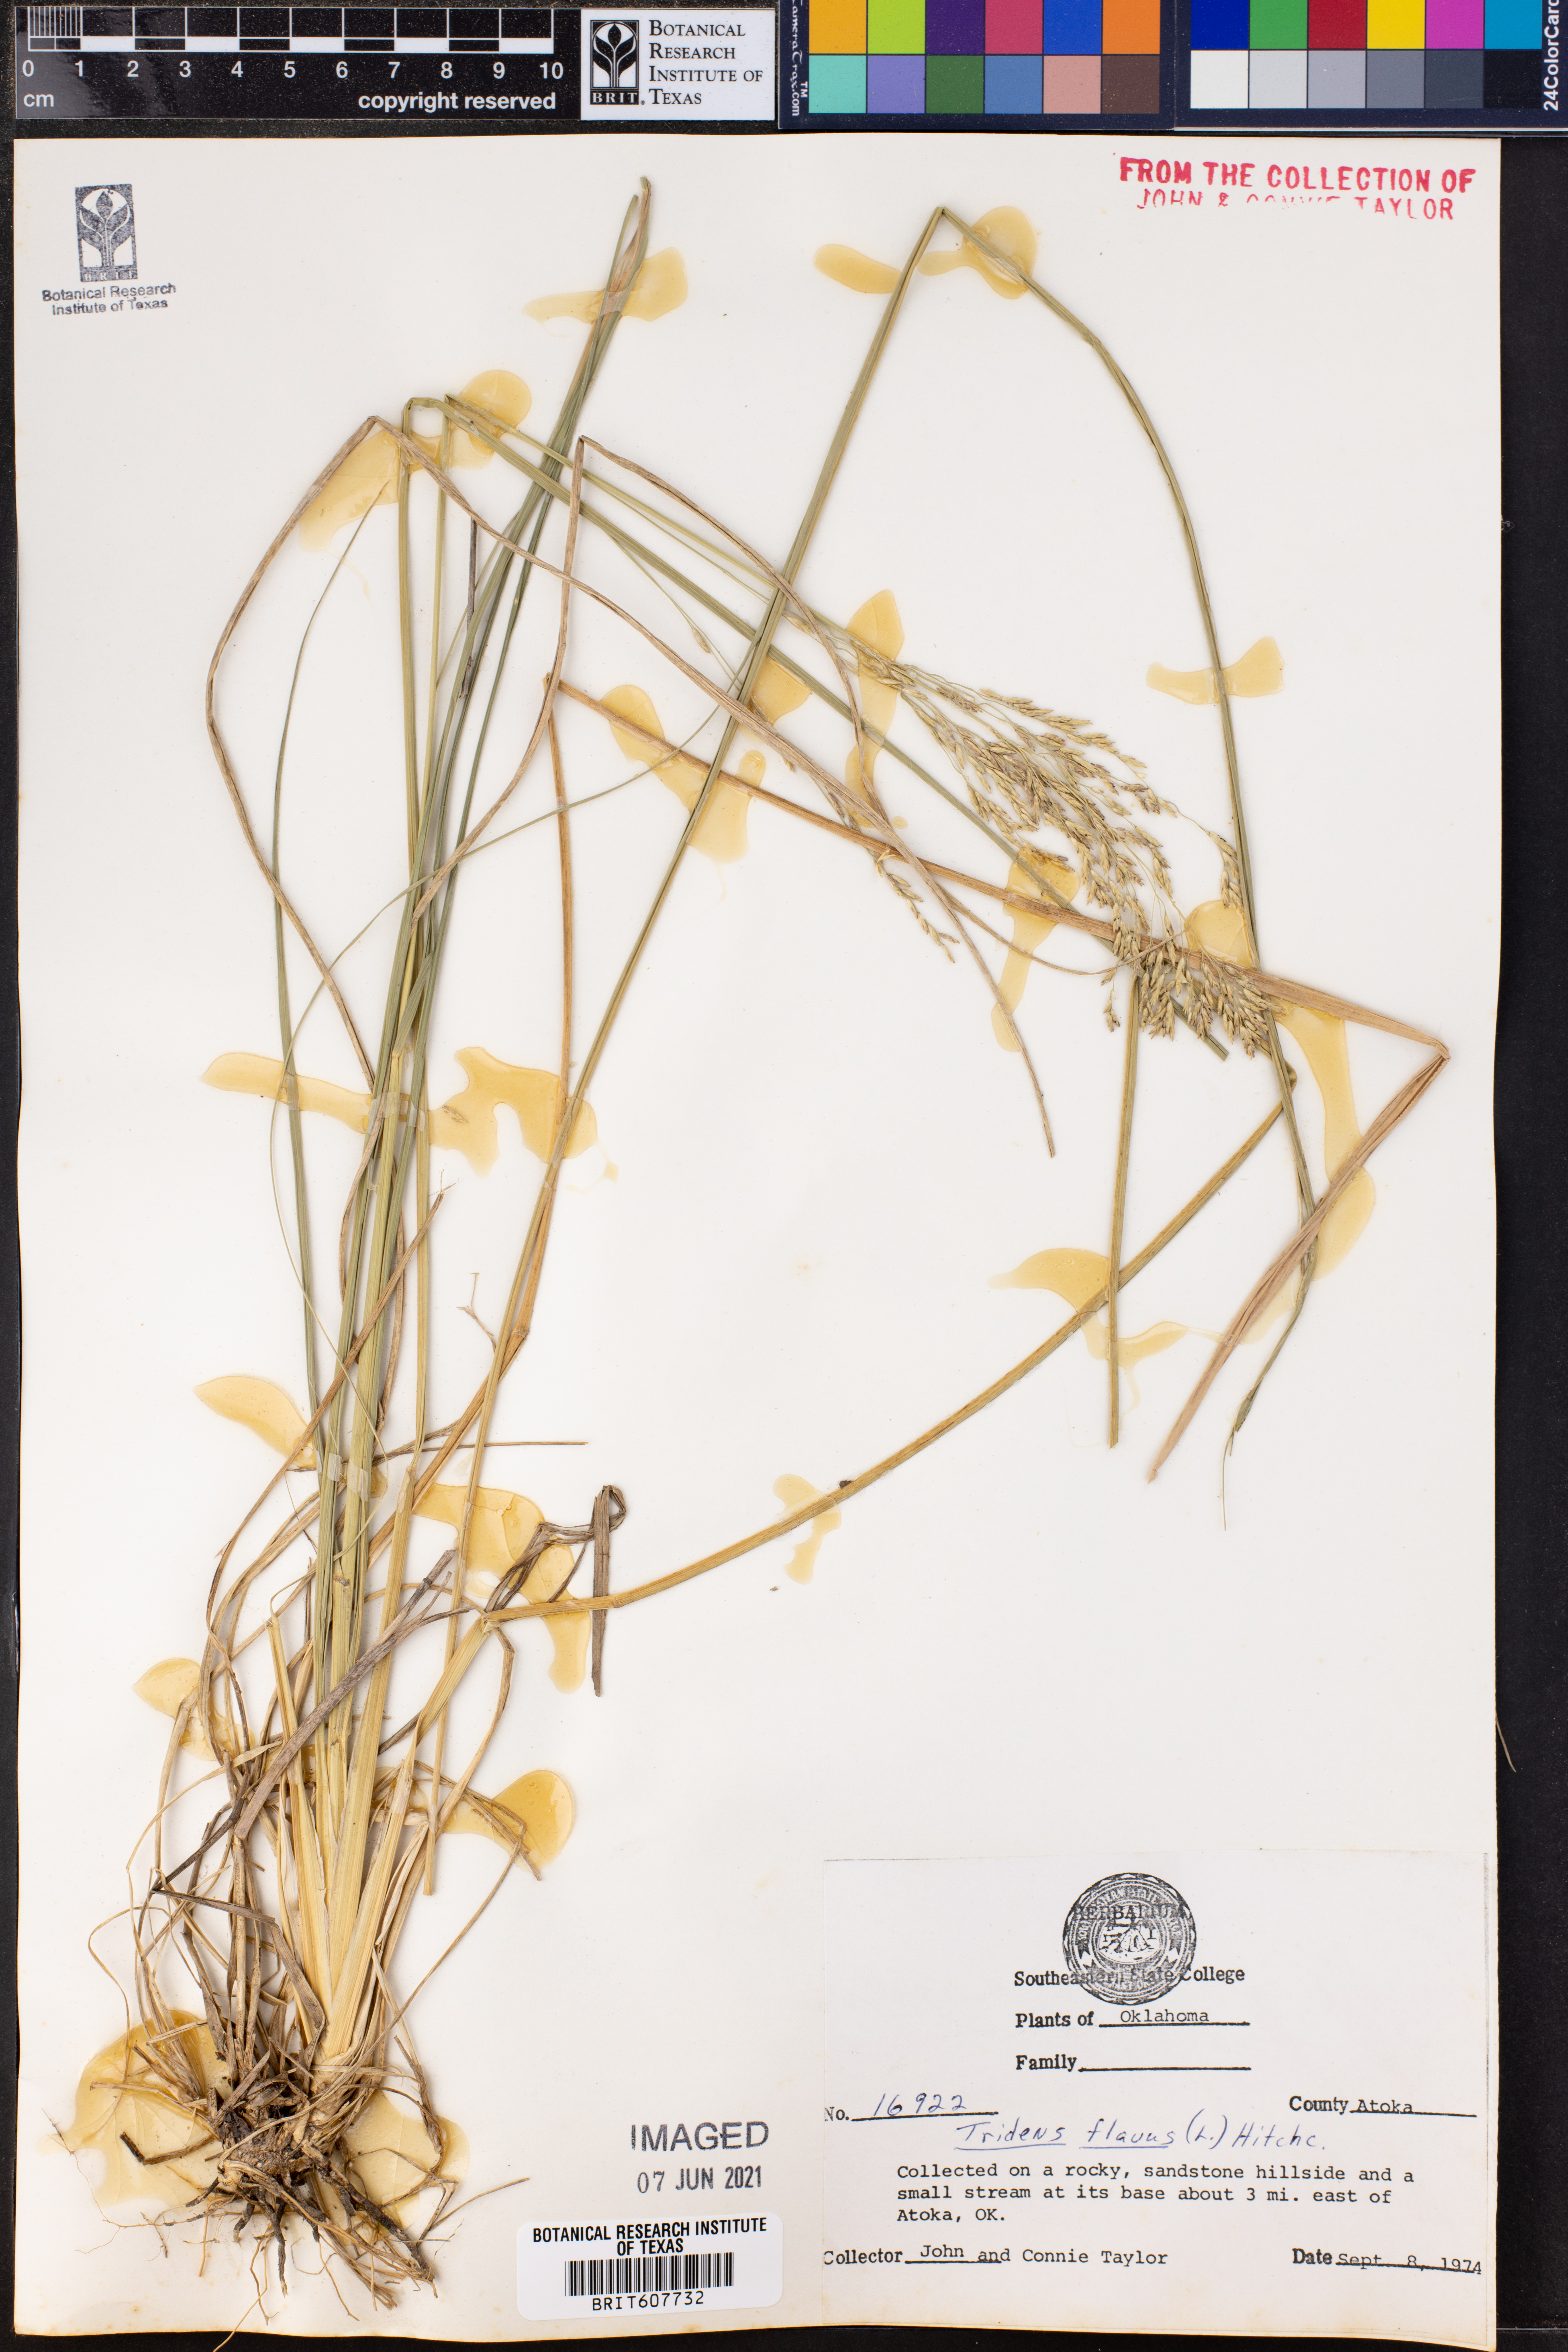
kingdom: Plantae
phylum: Tracheophyta
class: Liliopsida
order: Poales
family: Poaceae
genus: Tridens
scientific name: Tridens flavus
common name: Purpletop
